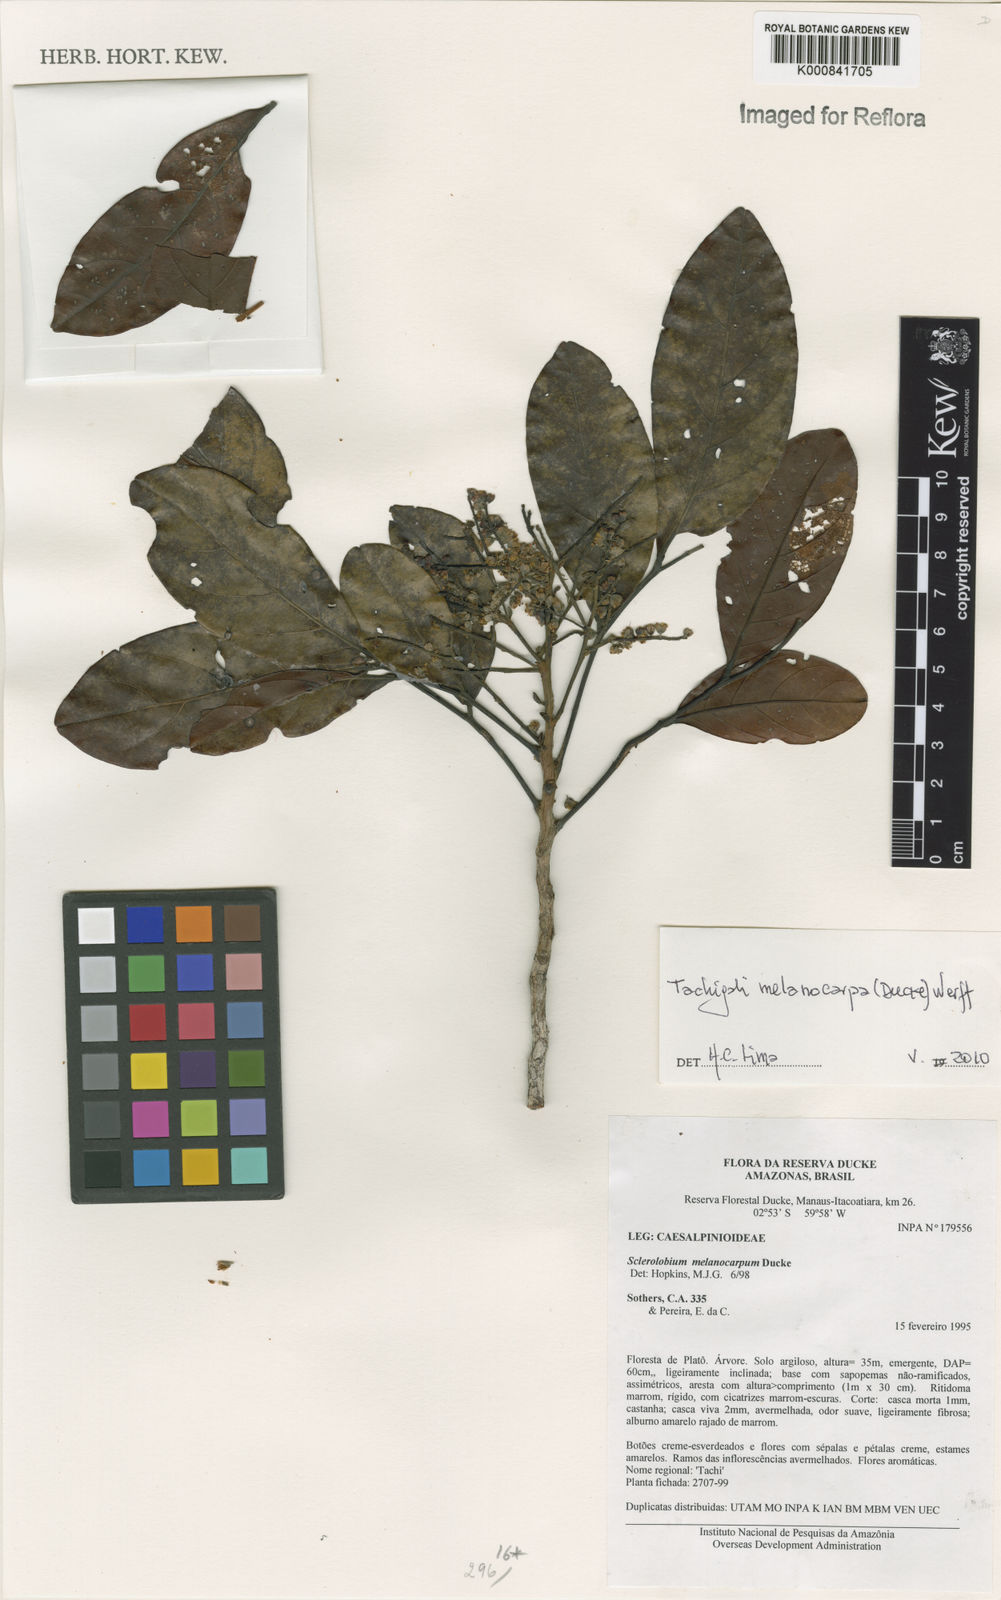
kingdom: Plantae
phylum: Tracheophyta
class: Magnoliopsida
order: Fabales
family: Fabaceae
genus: Tachigali
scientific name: Tachigali melanocarpa
